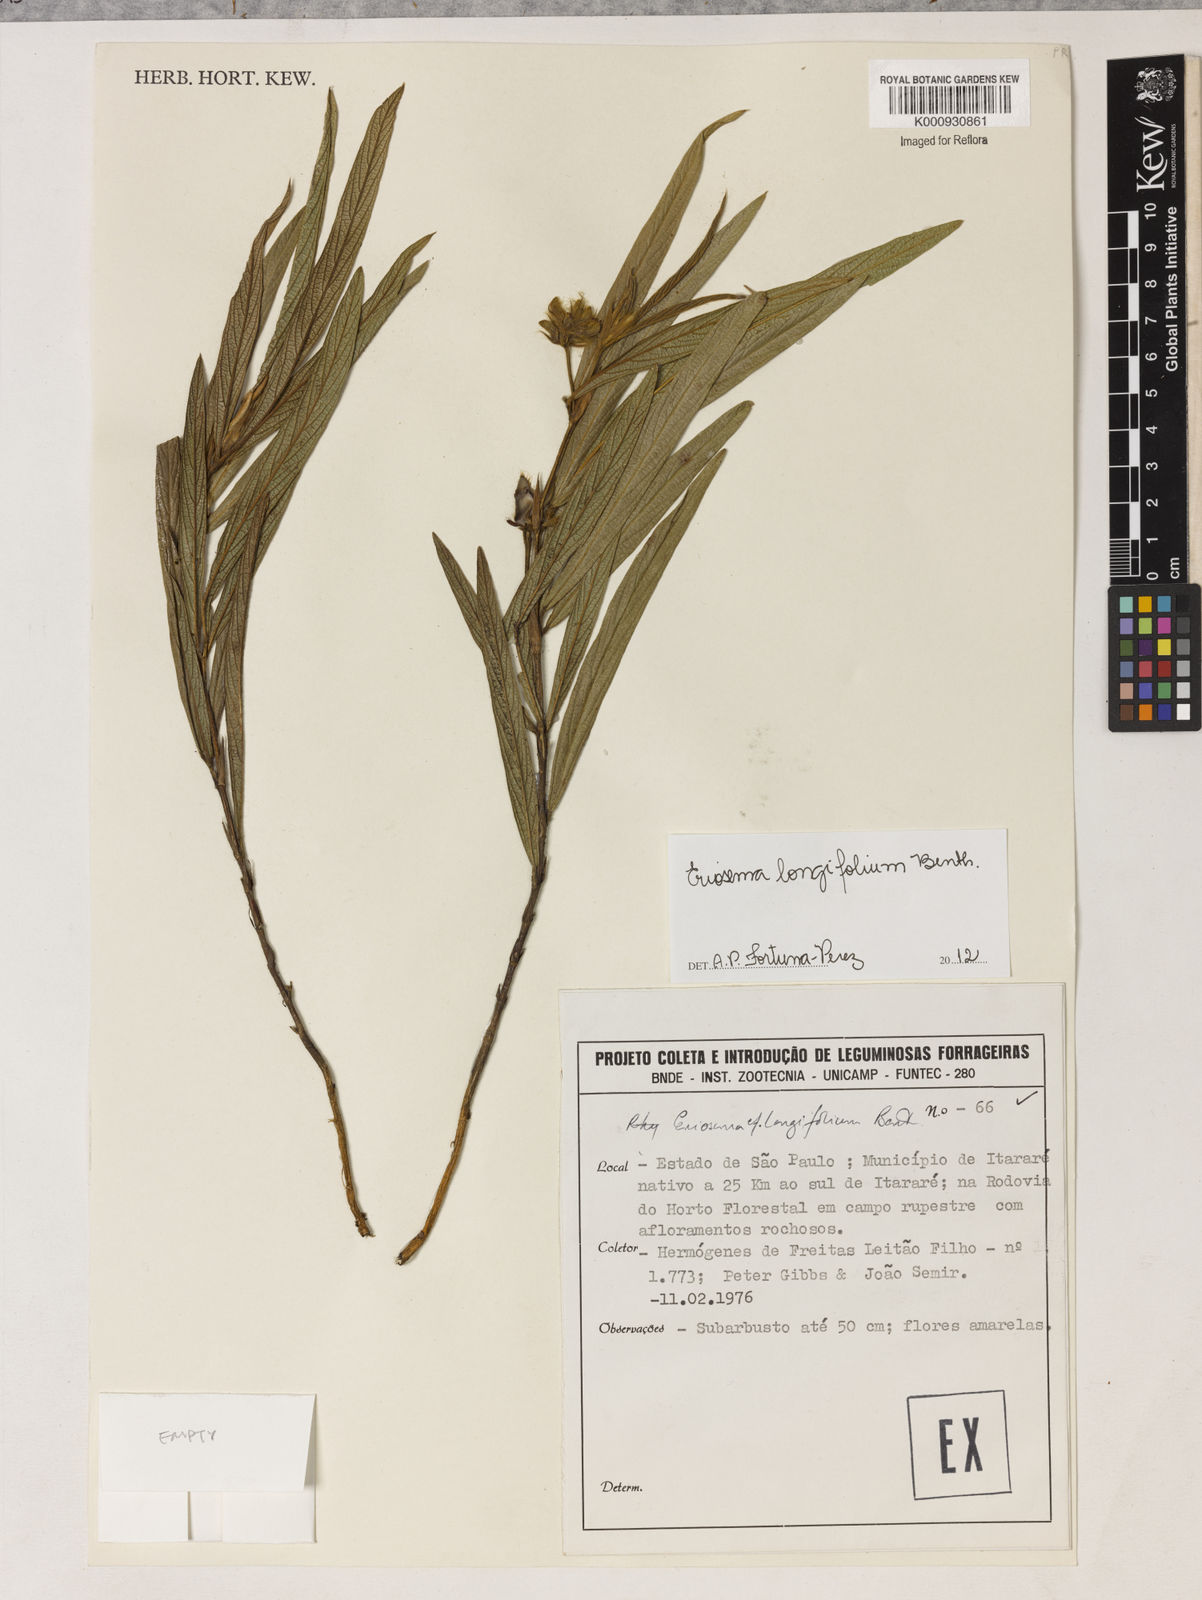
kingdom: Plantae
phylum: Tracheophyta
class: Magnoliopsida
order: Fabales
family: Fabaceae
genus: Eriosema
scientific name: Eriosema longifolium
